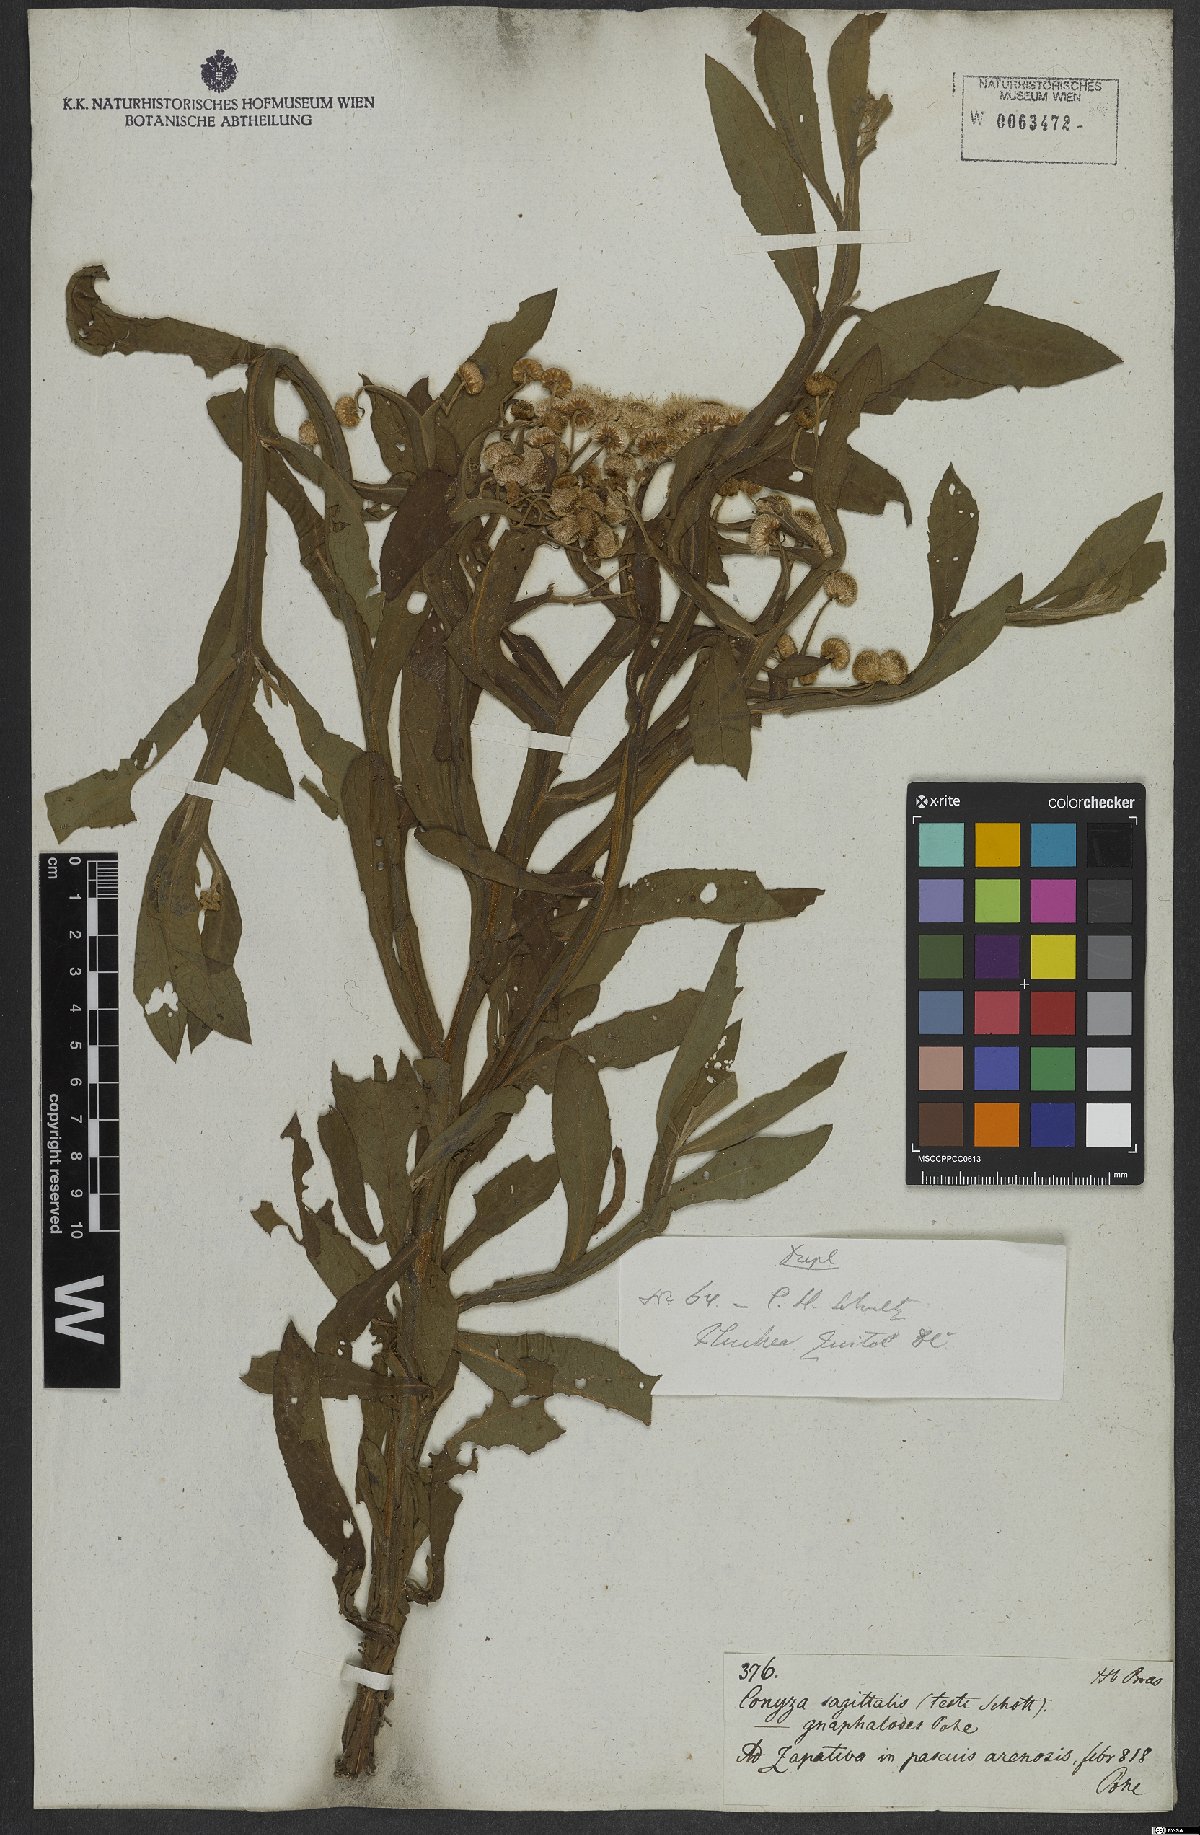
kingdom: Plantae
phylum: Tracheophyta
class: Magnoliopsida
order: Asterales
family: Asteraceae
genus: Pluchea
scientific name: Pluchea sagittalis
